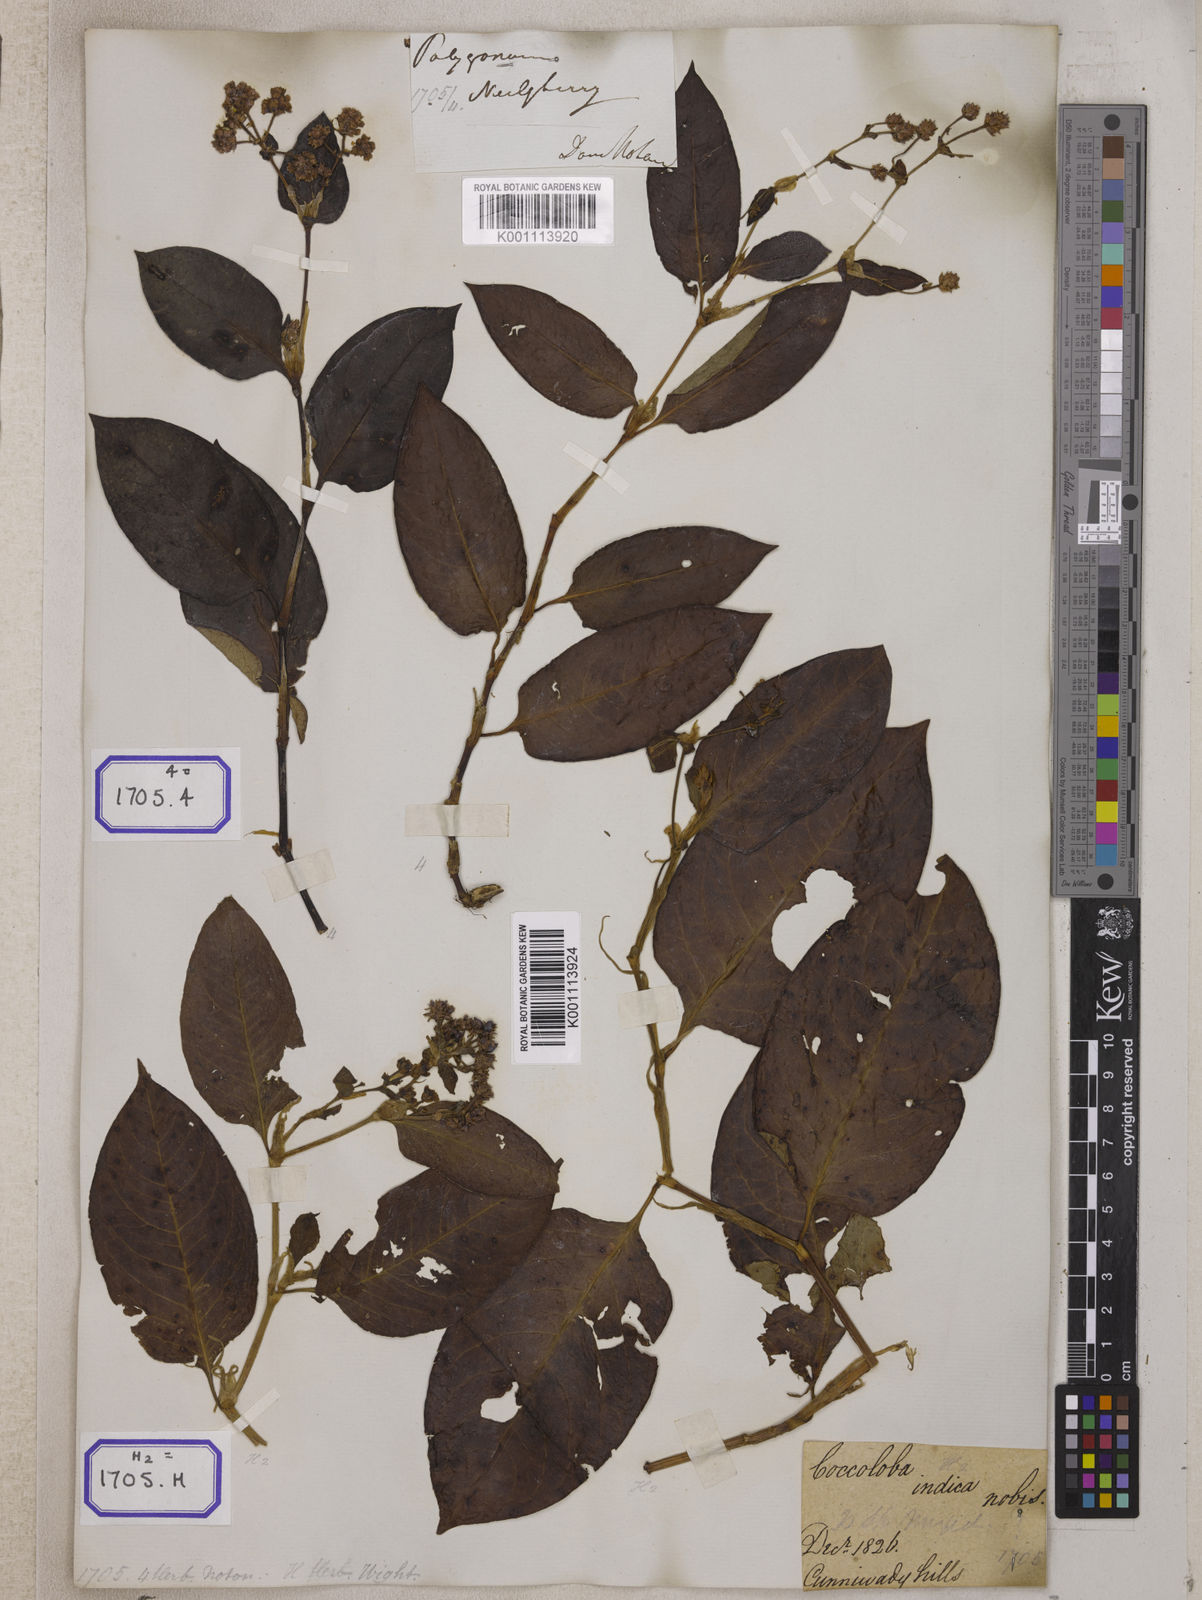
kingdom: Plantae
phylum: Tracheophyta
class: Magnoliopsida
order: Caryophyllales
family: Polygonaceae
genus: Persicaria
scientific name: Persicaria chinensis
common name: Chinese knotweed
